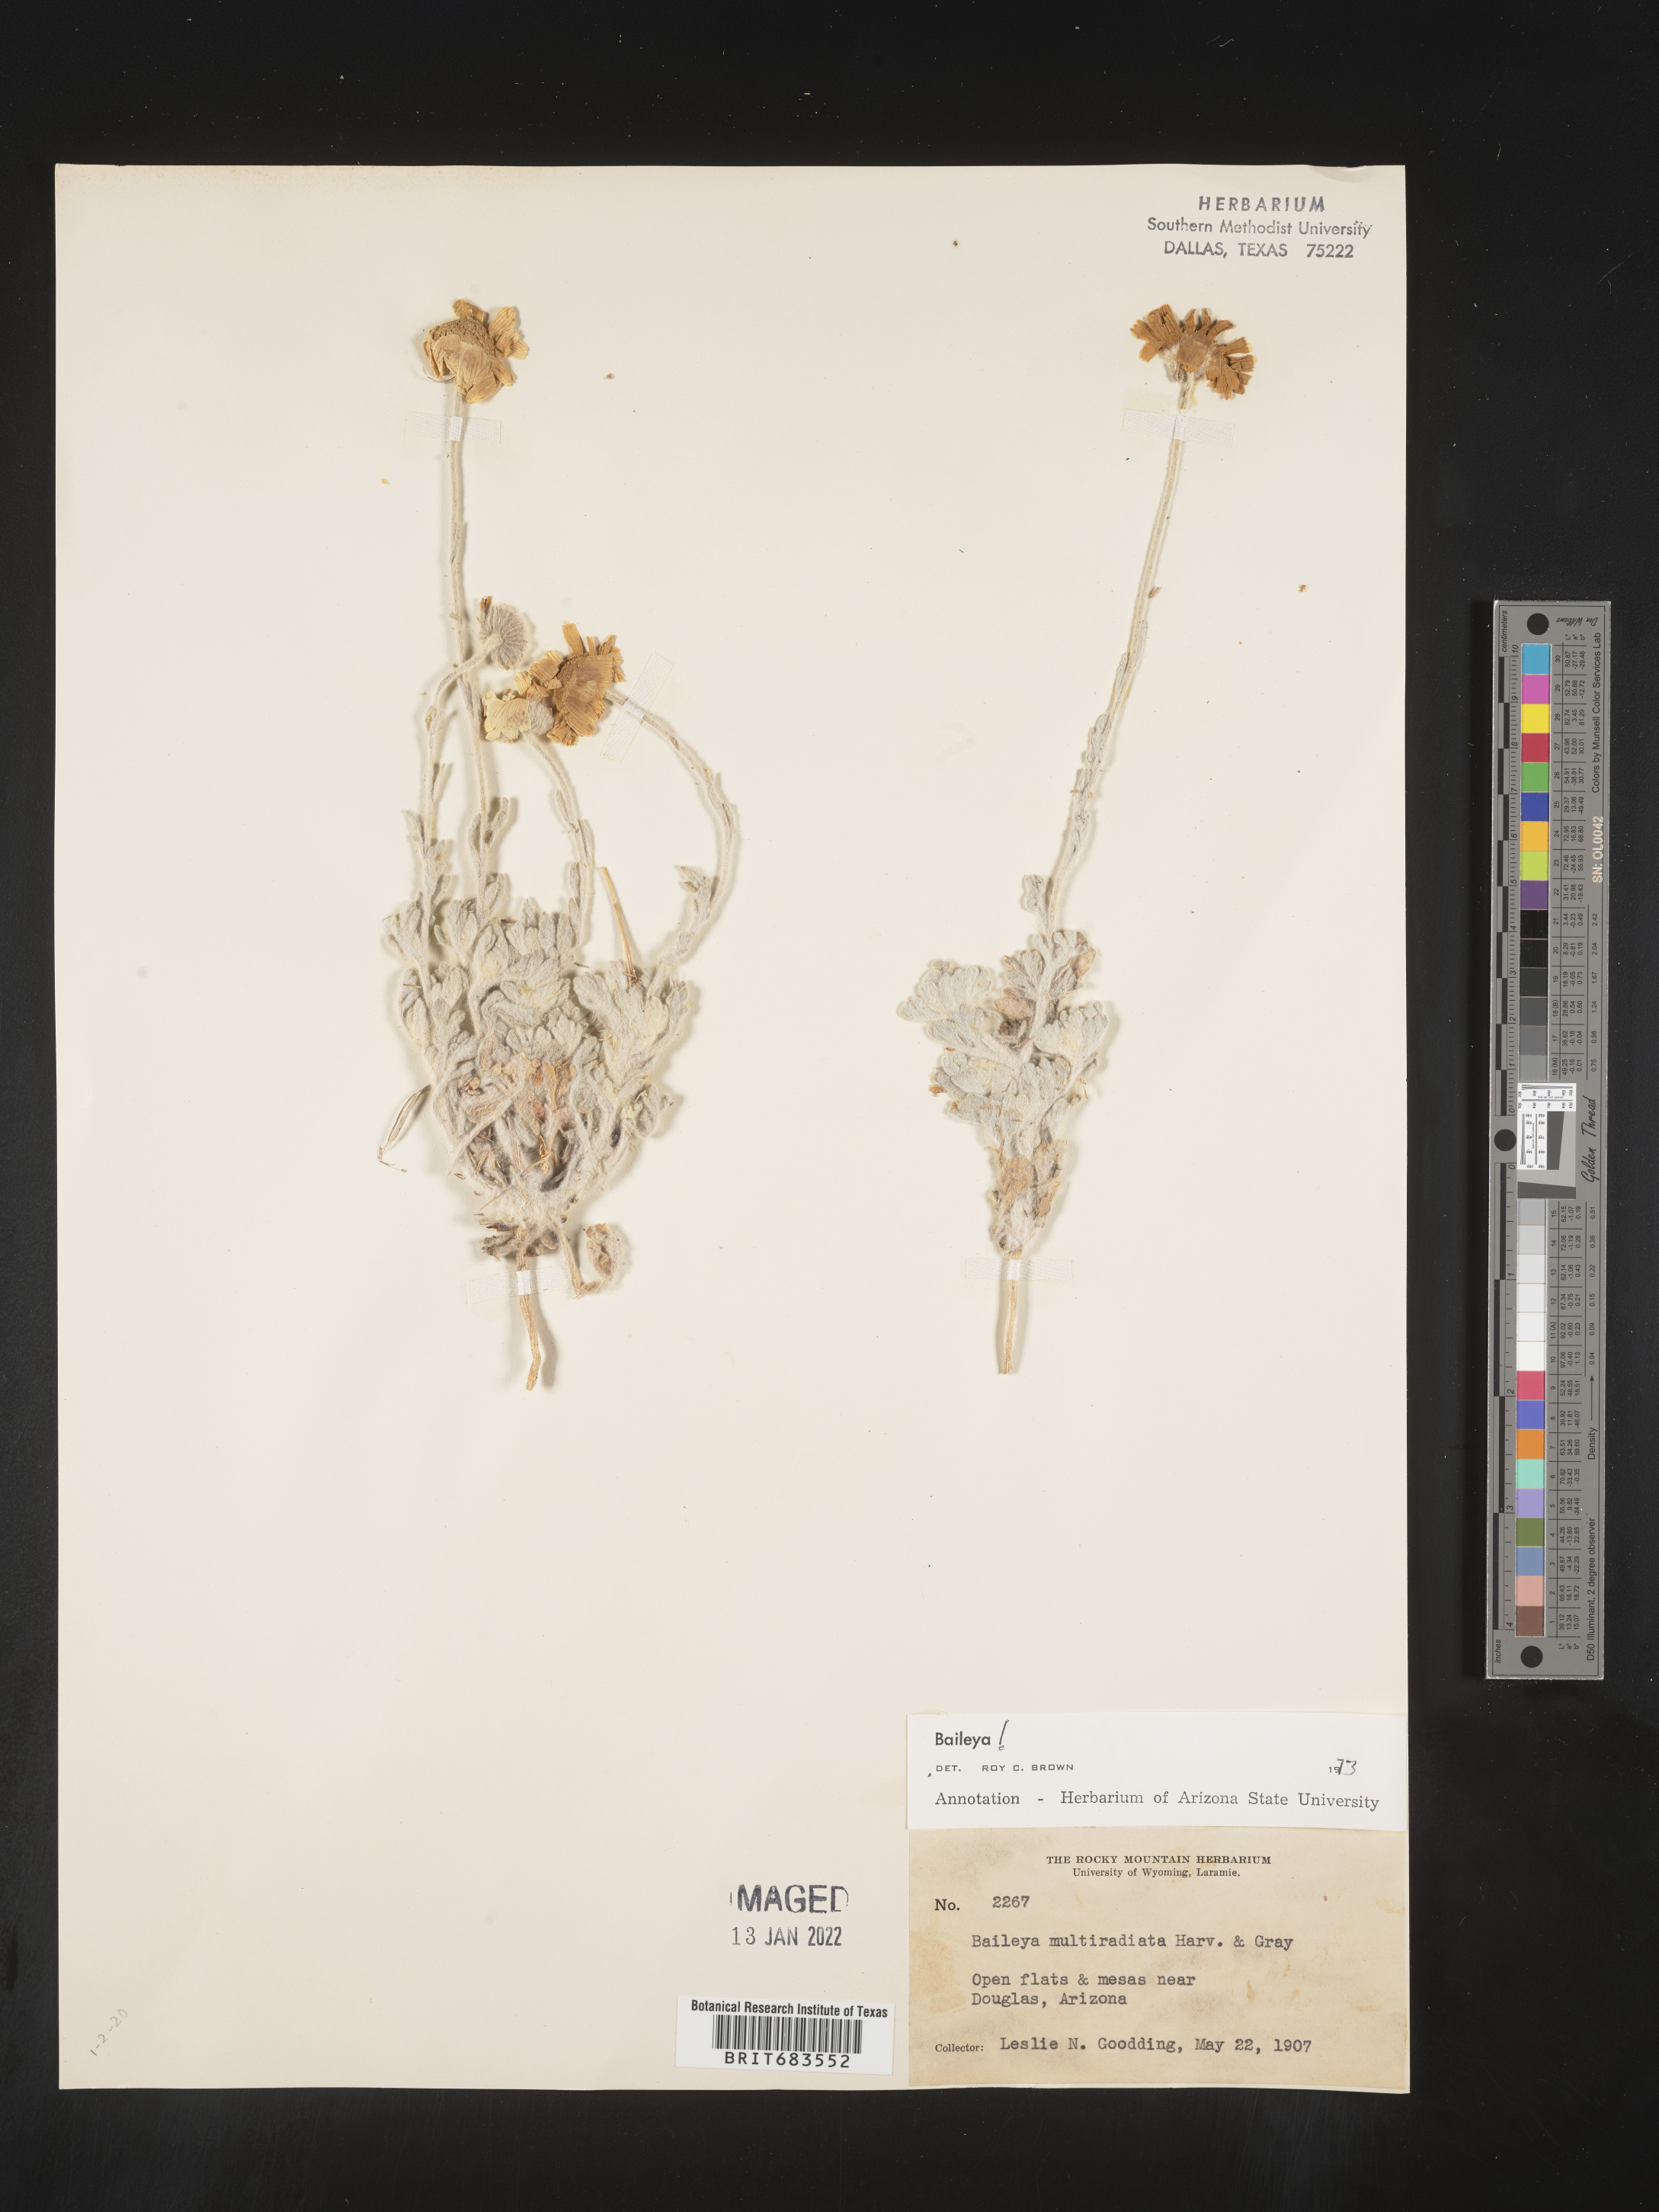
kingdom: Plantae
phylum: Tracheophyta
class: Magnoliopsida
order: Asterales
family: Asteraceae
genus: Baileya
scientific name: Baileya multiradiata
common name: Desert-marigold
